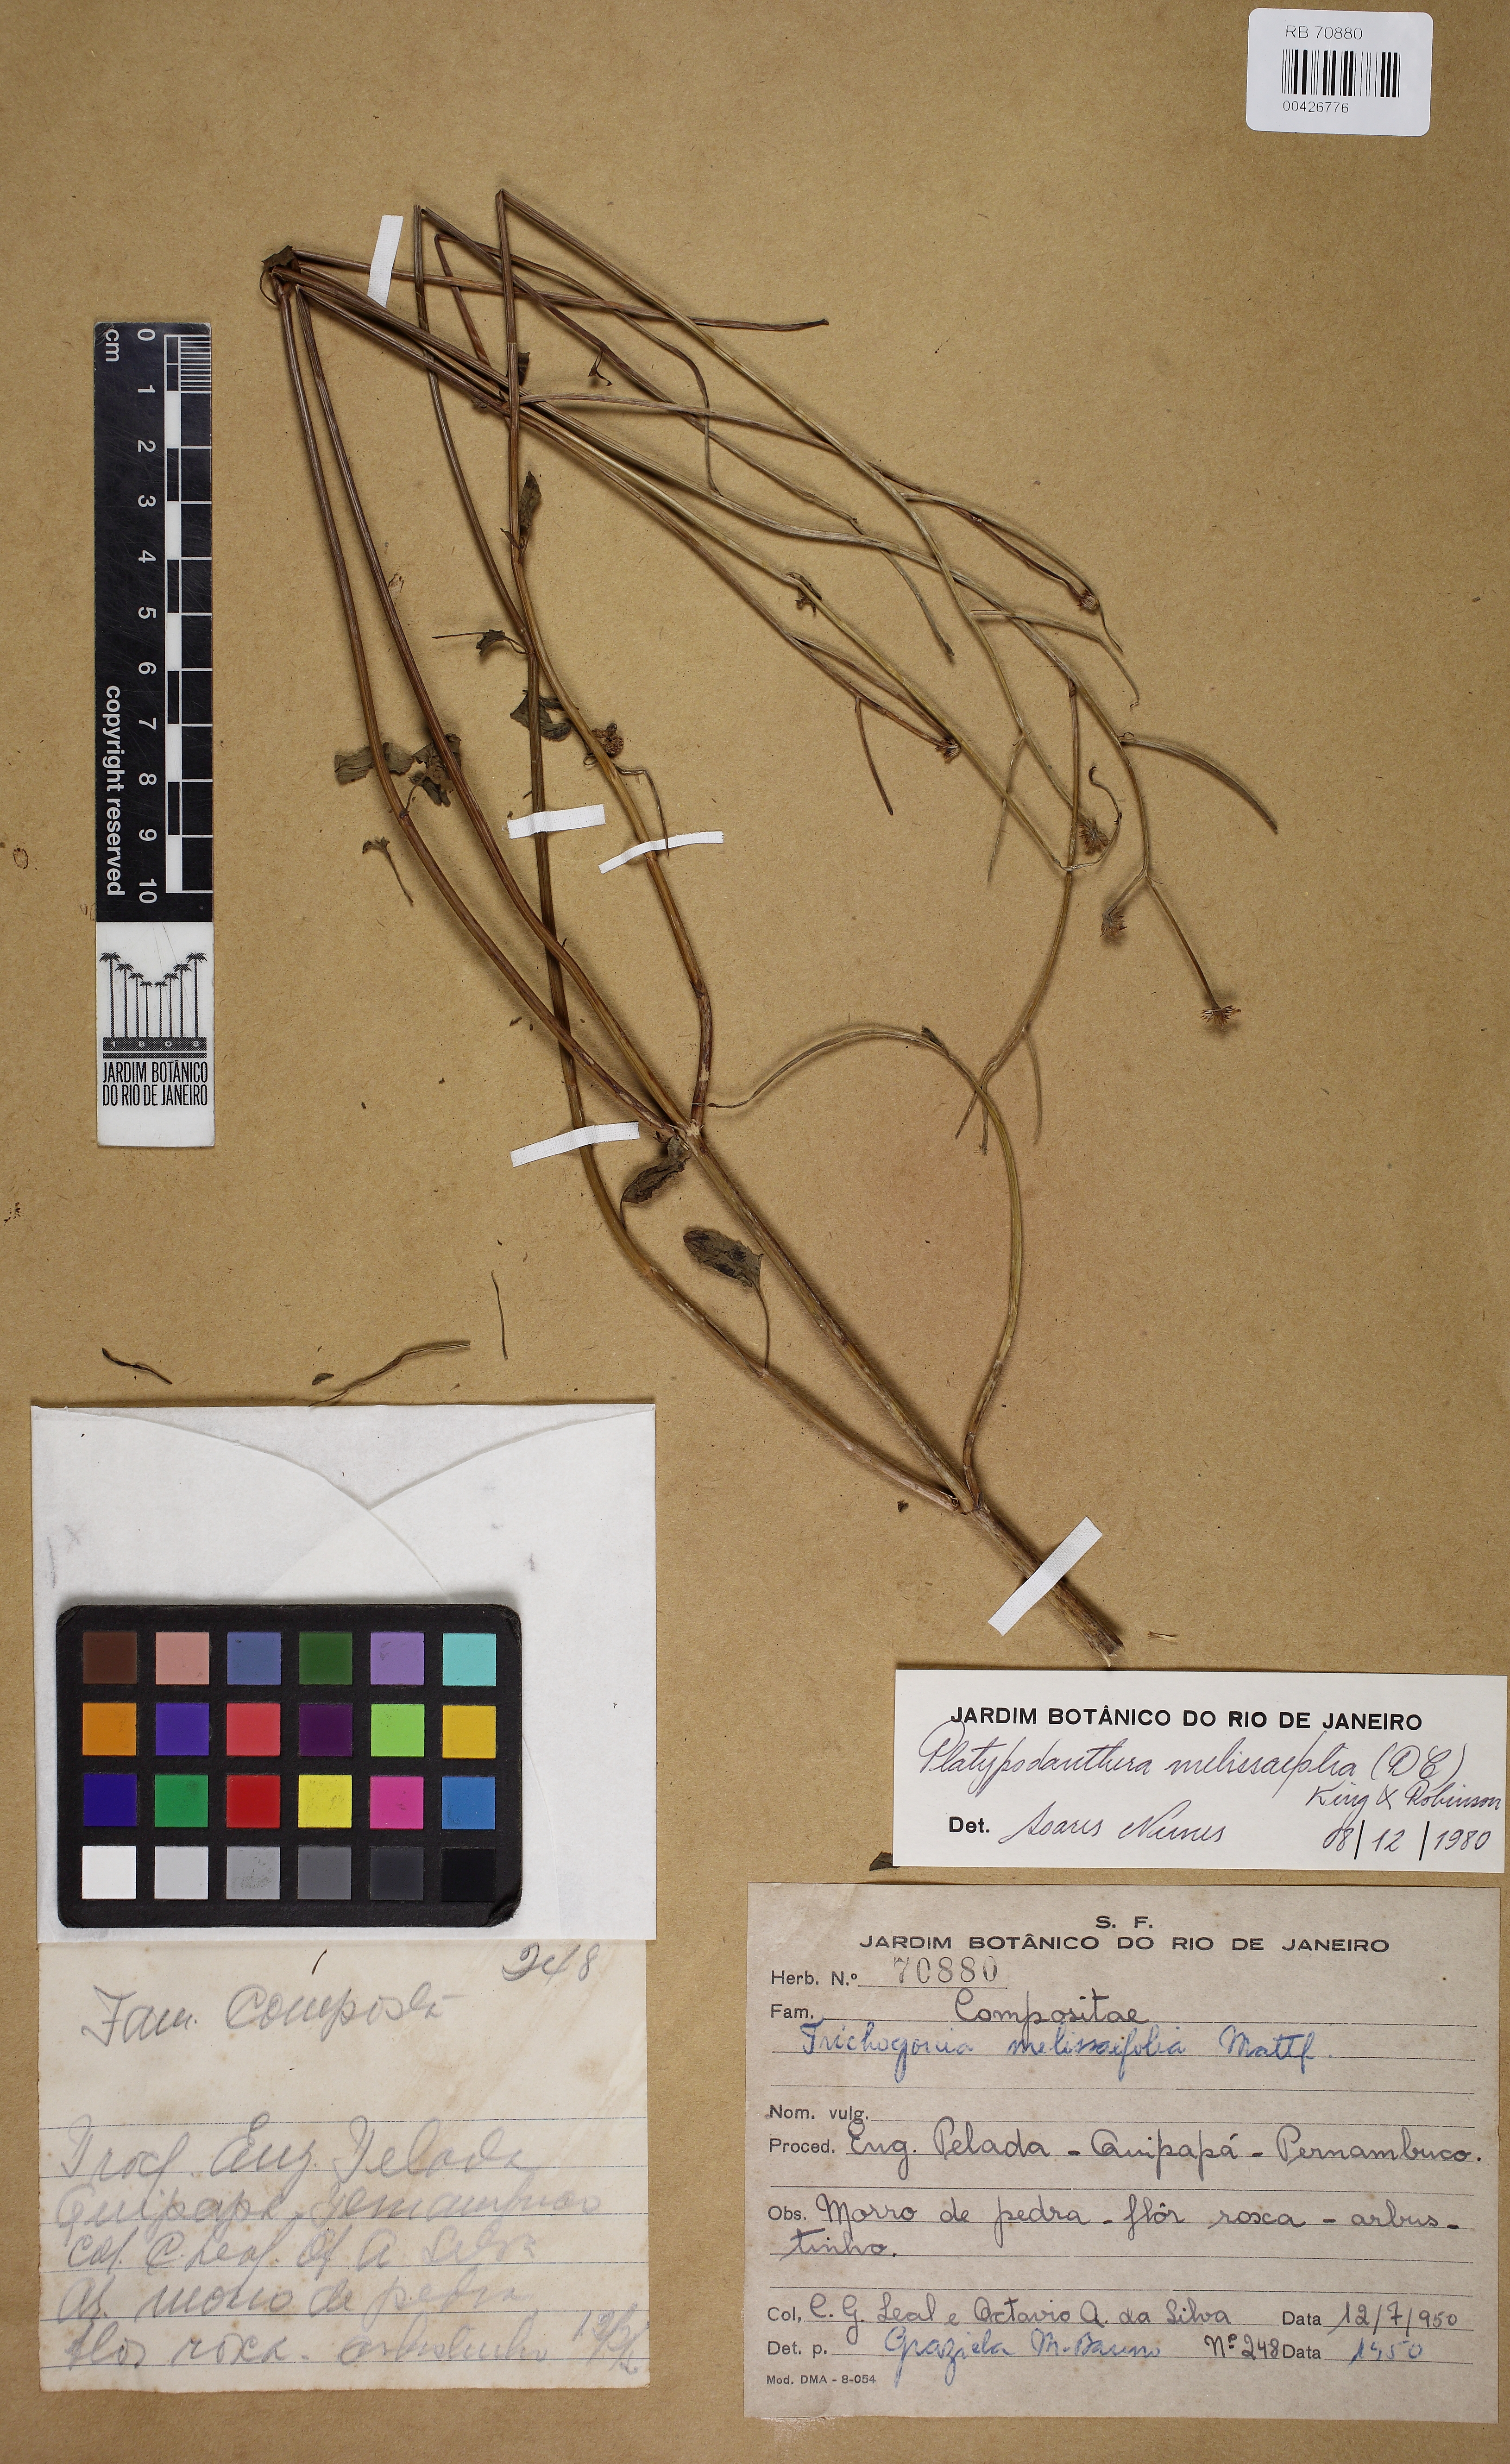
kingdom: Plantae
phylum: Tracheophyta
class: Magnoliopsida
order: Asterales
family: Asteraceae
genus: Platypodanthera
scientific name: Platypodanthera melissifolia
